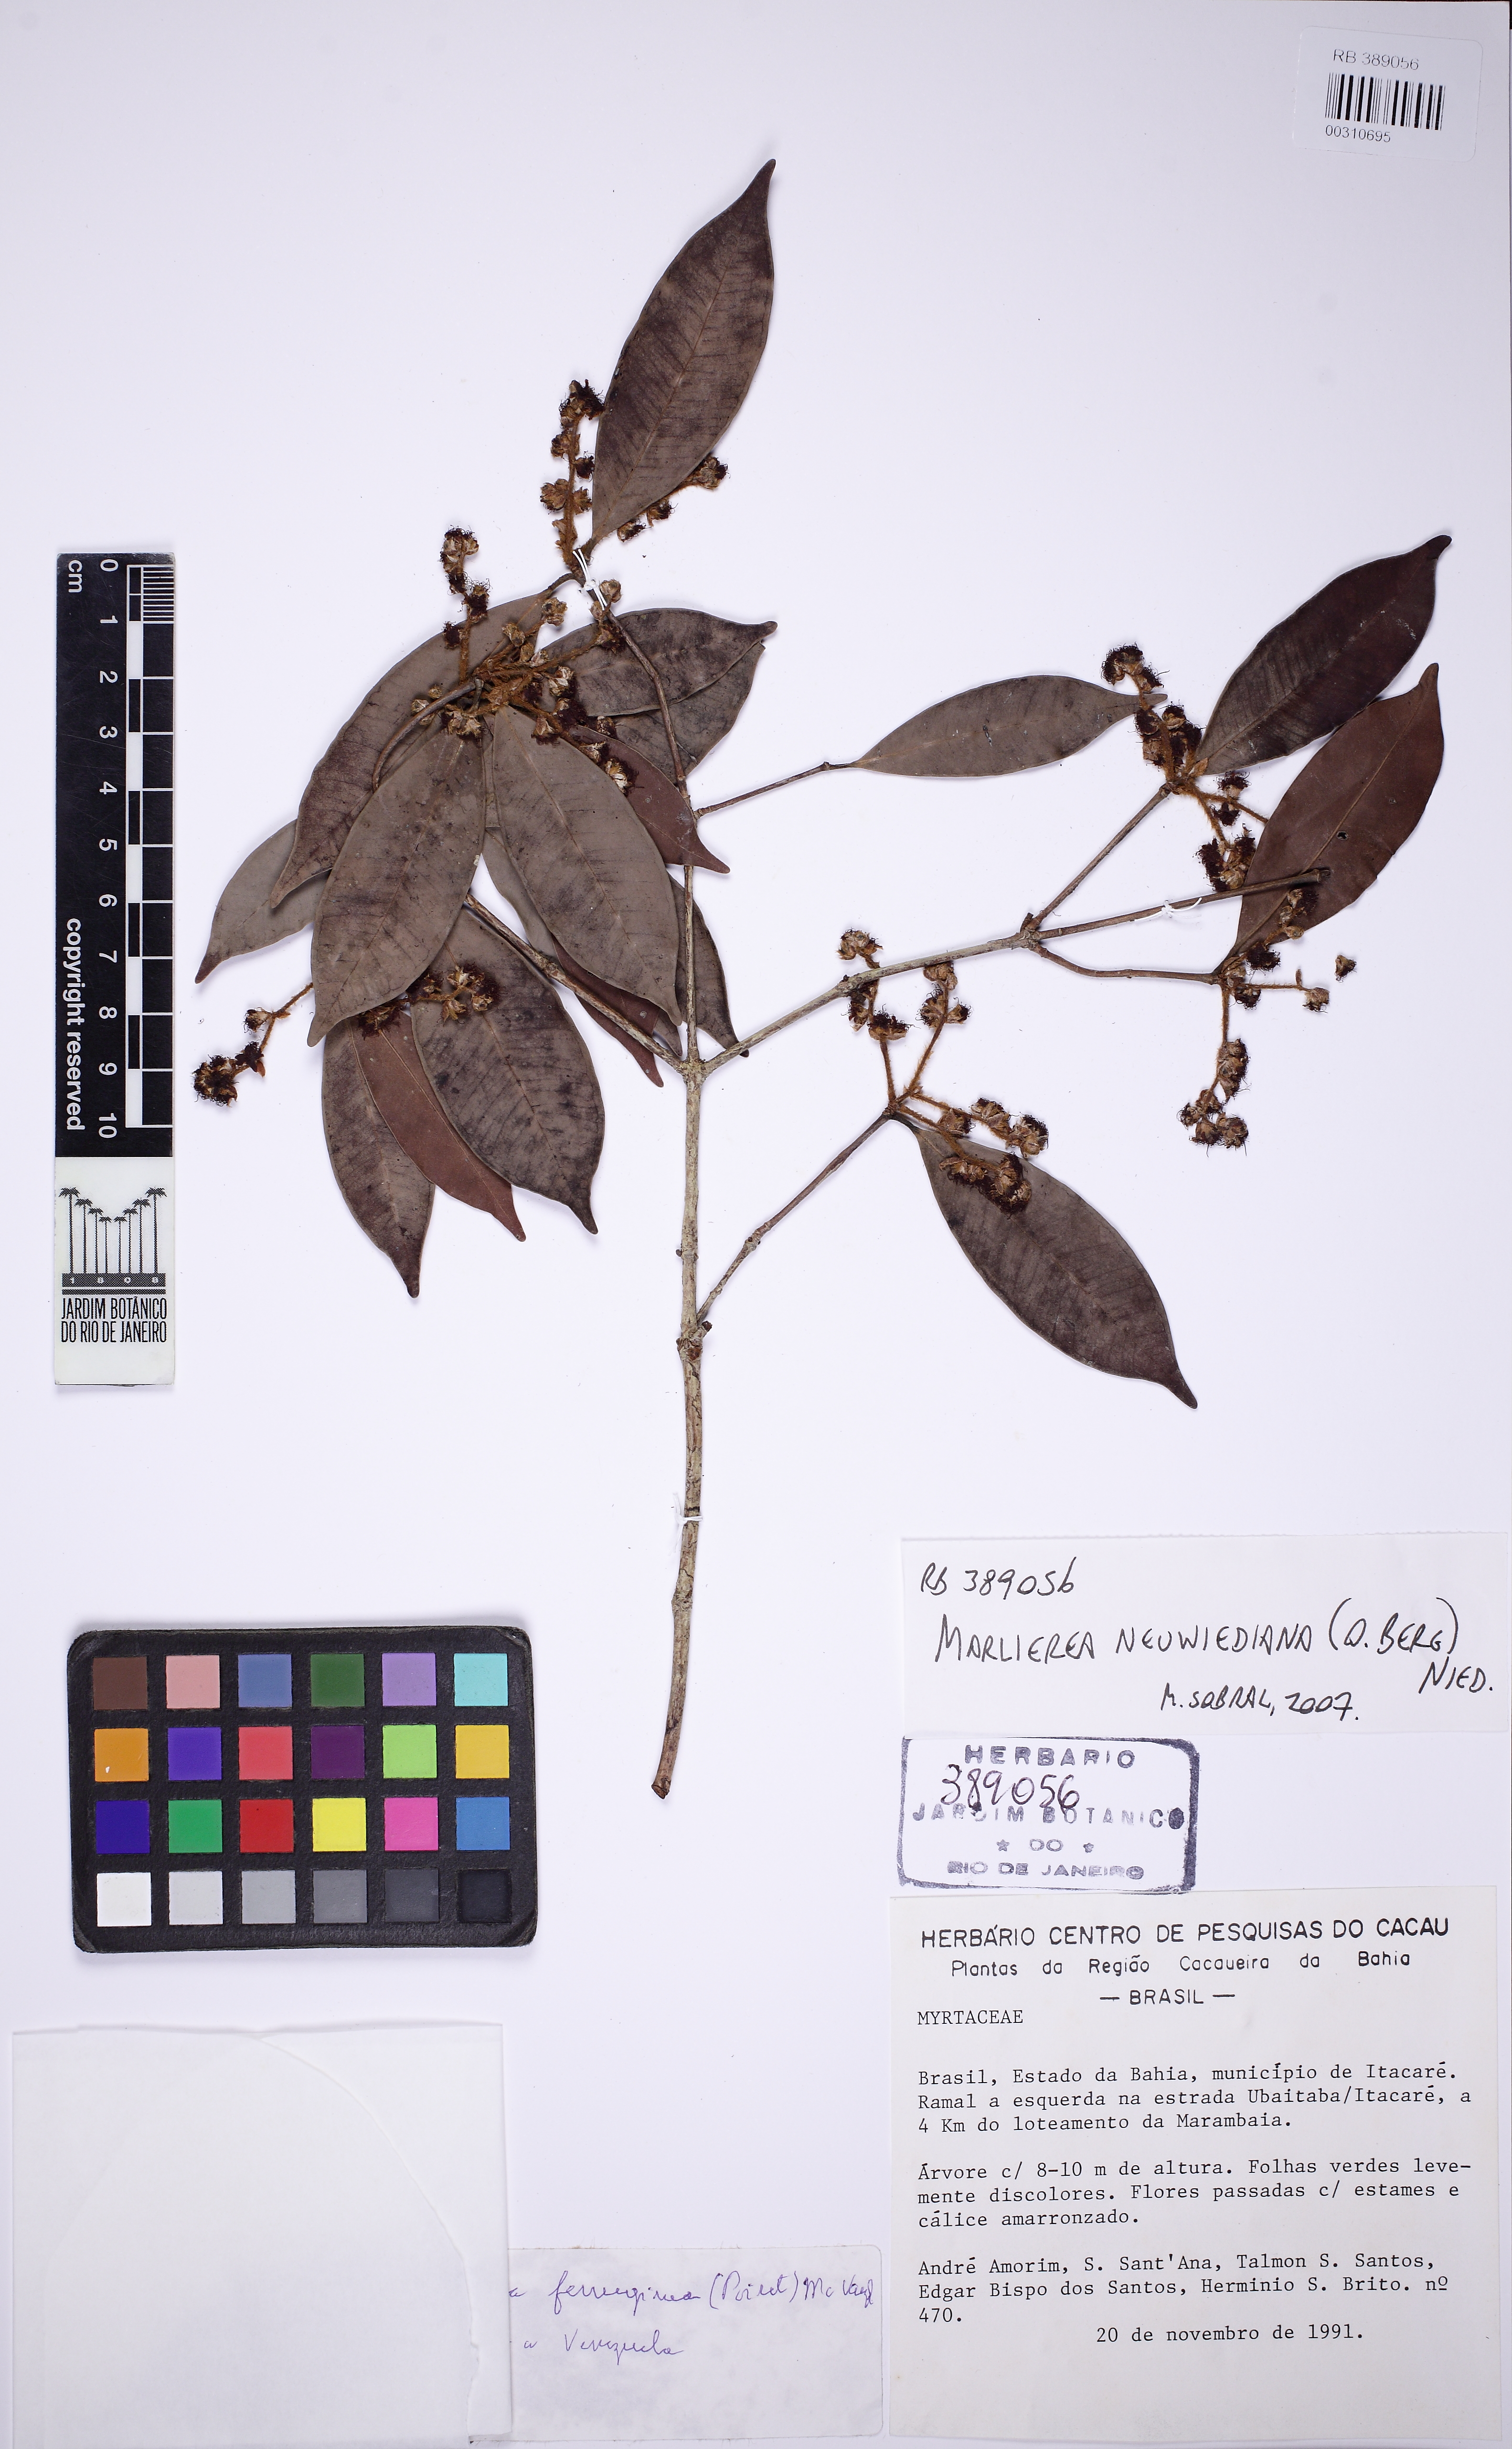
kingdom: Plantae
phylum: Tracheophyta
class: Magnoliopsida
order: Myrtales
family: Myrtaceae
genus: Myrcia
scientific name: Myrcia neuwiedeana
